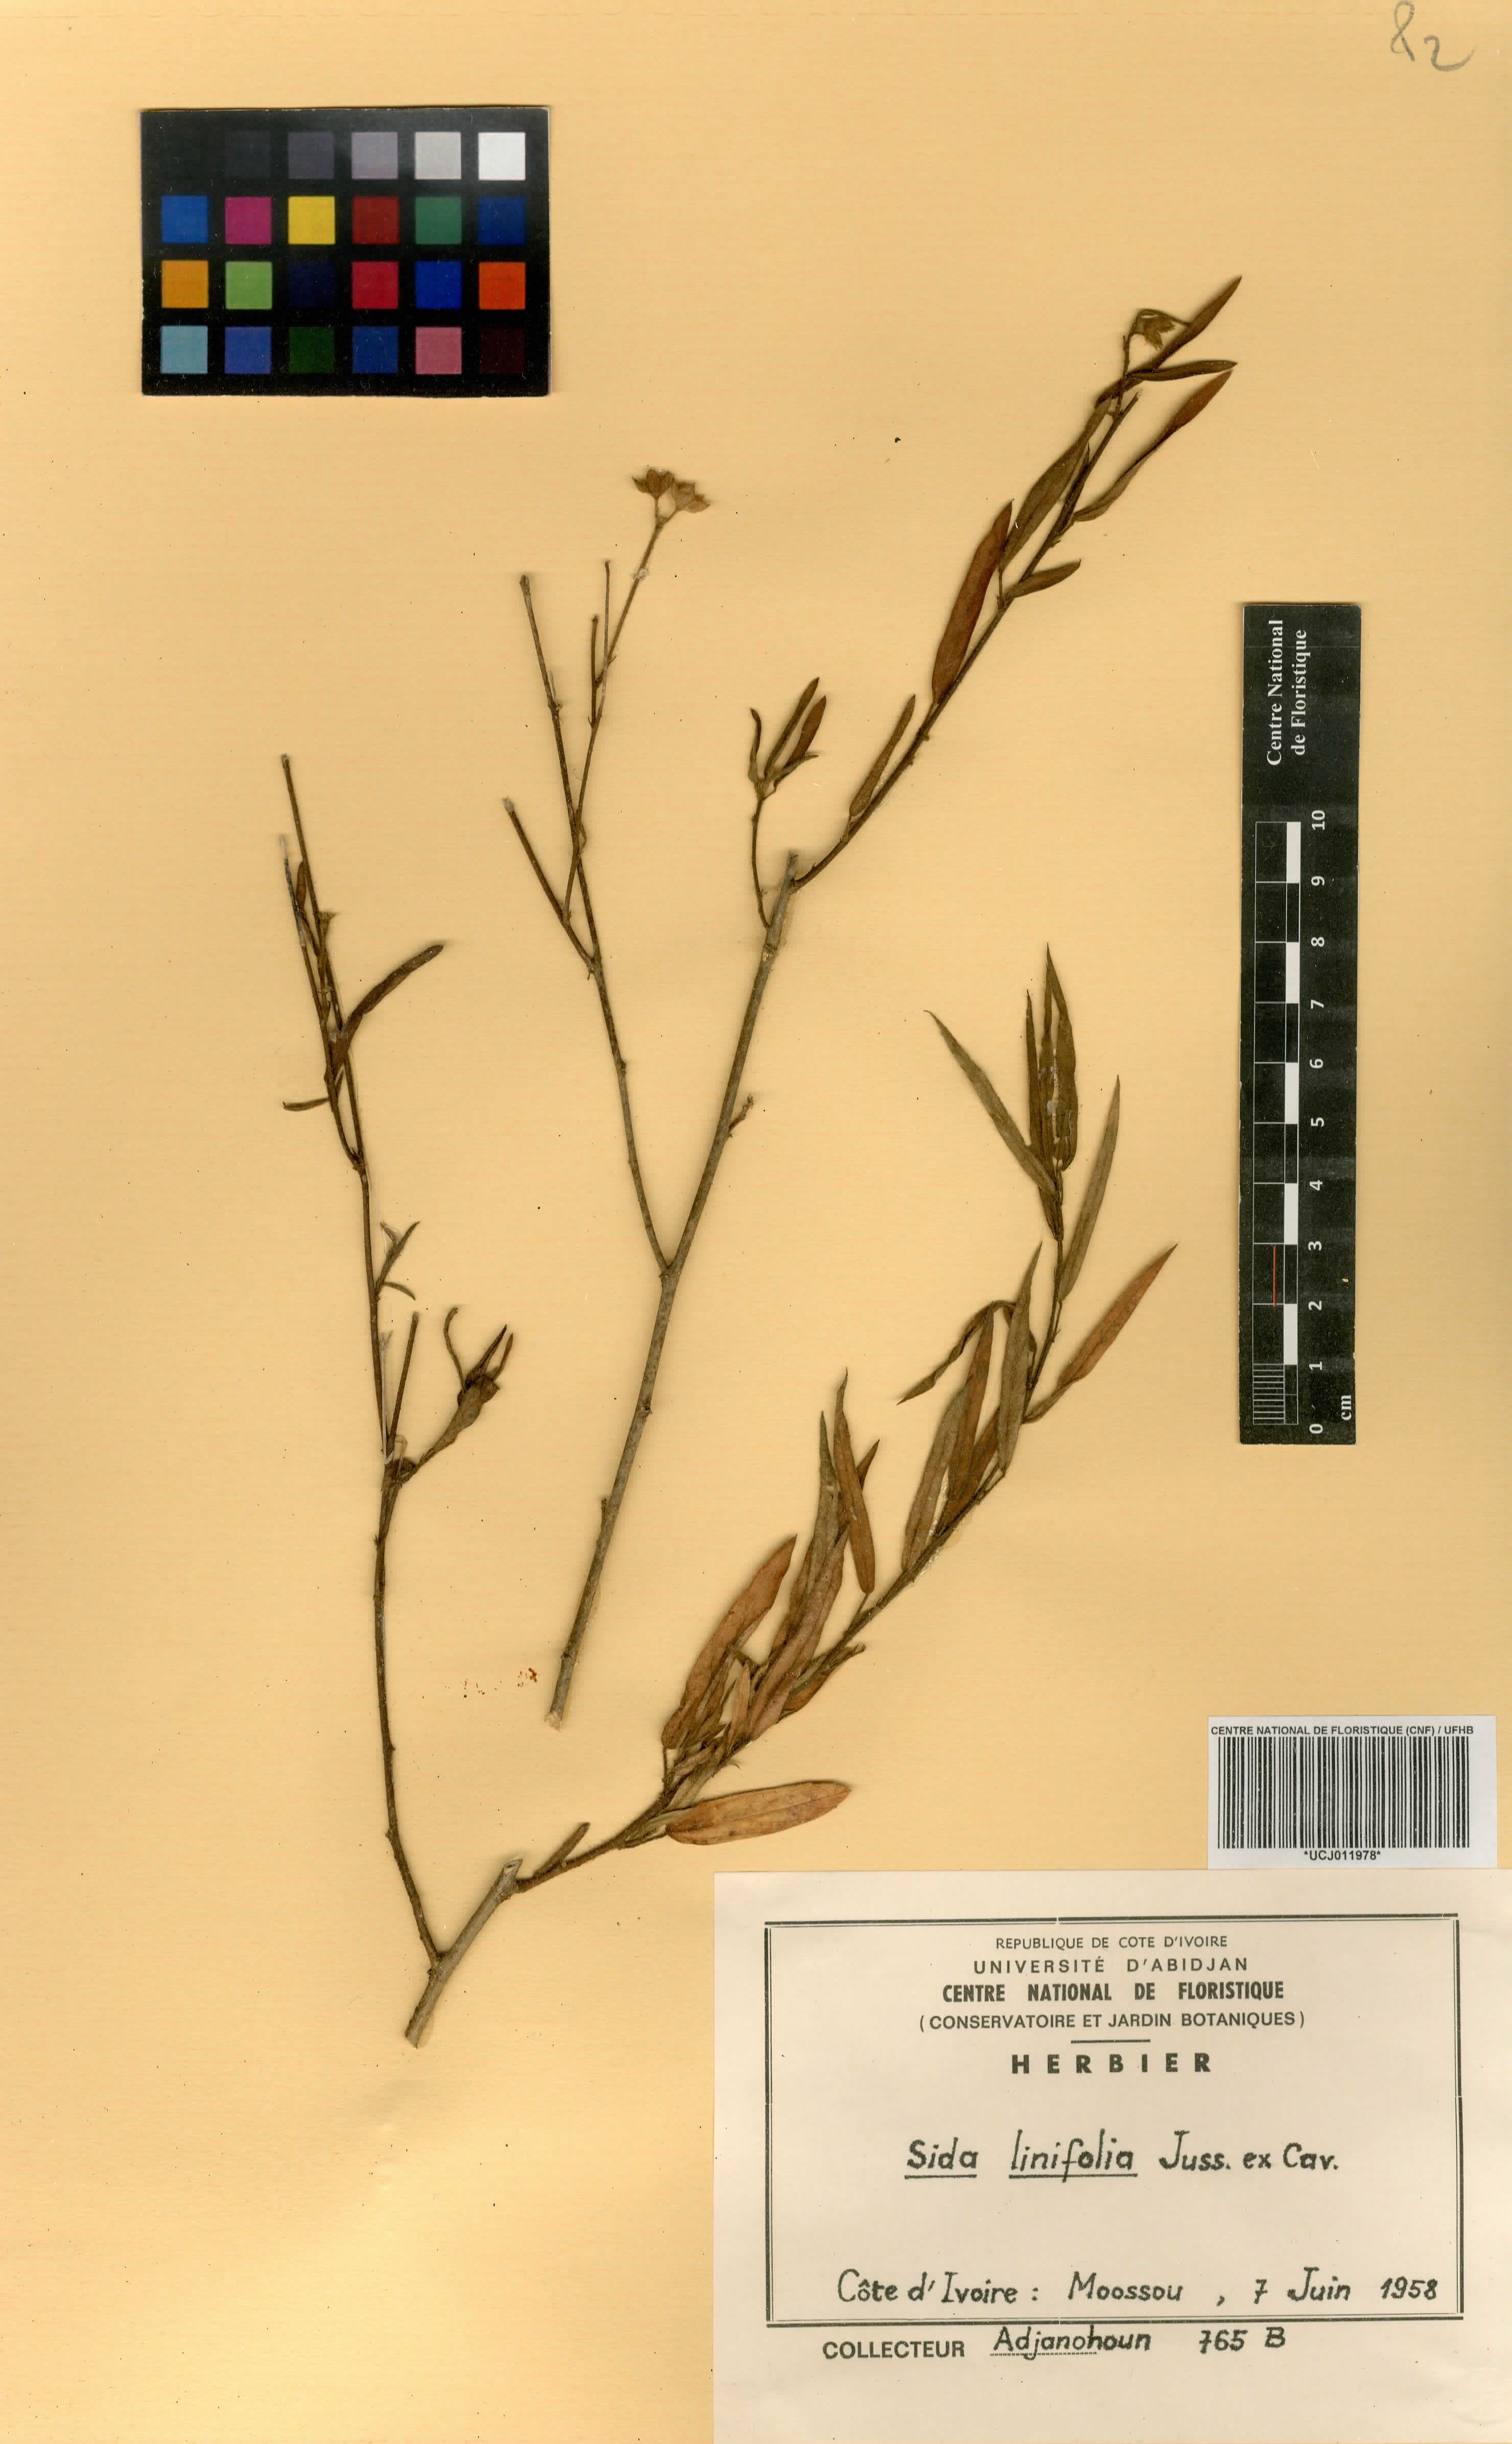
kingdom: Plantae
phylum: Tracheophyta
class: Magnoliopsida
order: Malvales
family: Malvaceae
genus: Sida
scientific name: Sida linifolia
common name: Flaxleaf fanpetals
